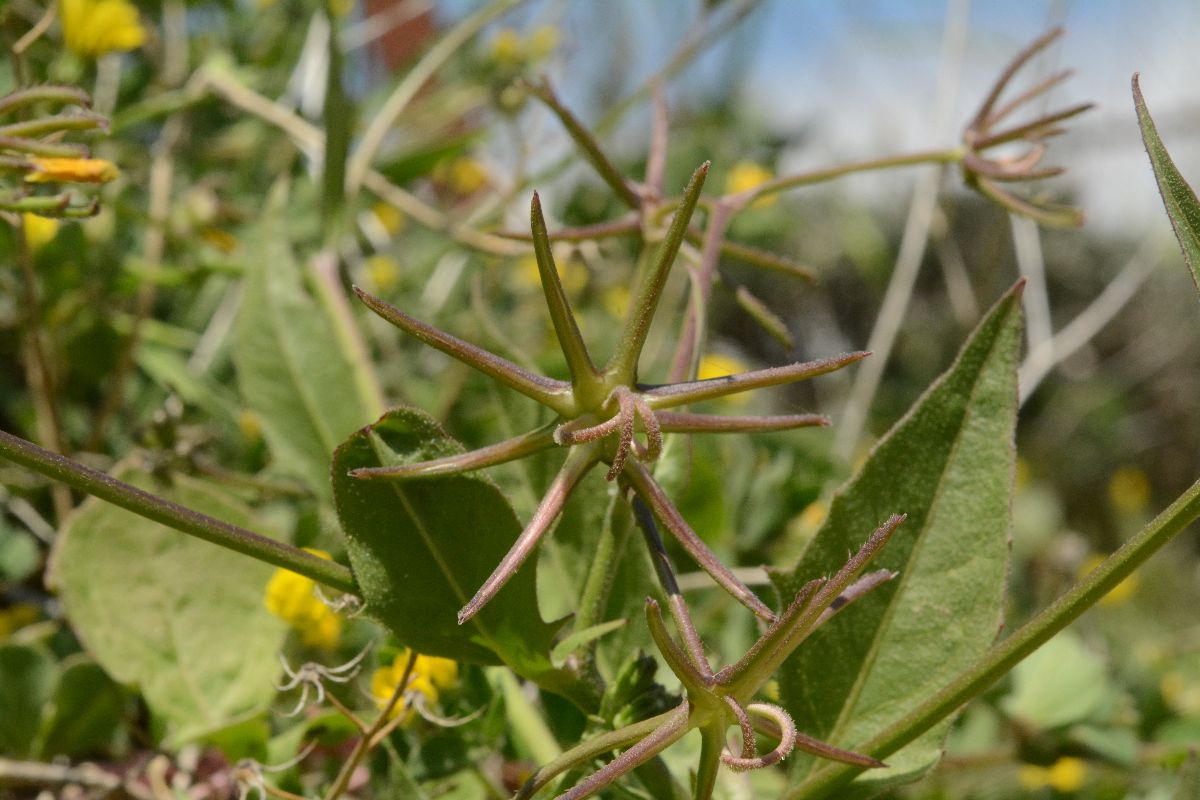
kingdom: Plantae
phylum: Tracheophyta
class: Magnoliopsida
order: Asterales
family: Asteraceae
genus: Rhagadiolus
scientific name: Rhagadiolus edulis
